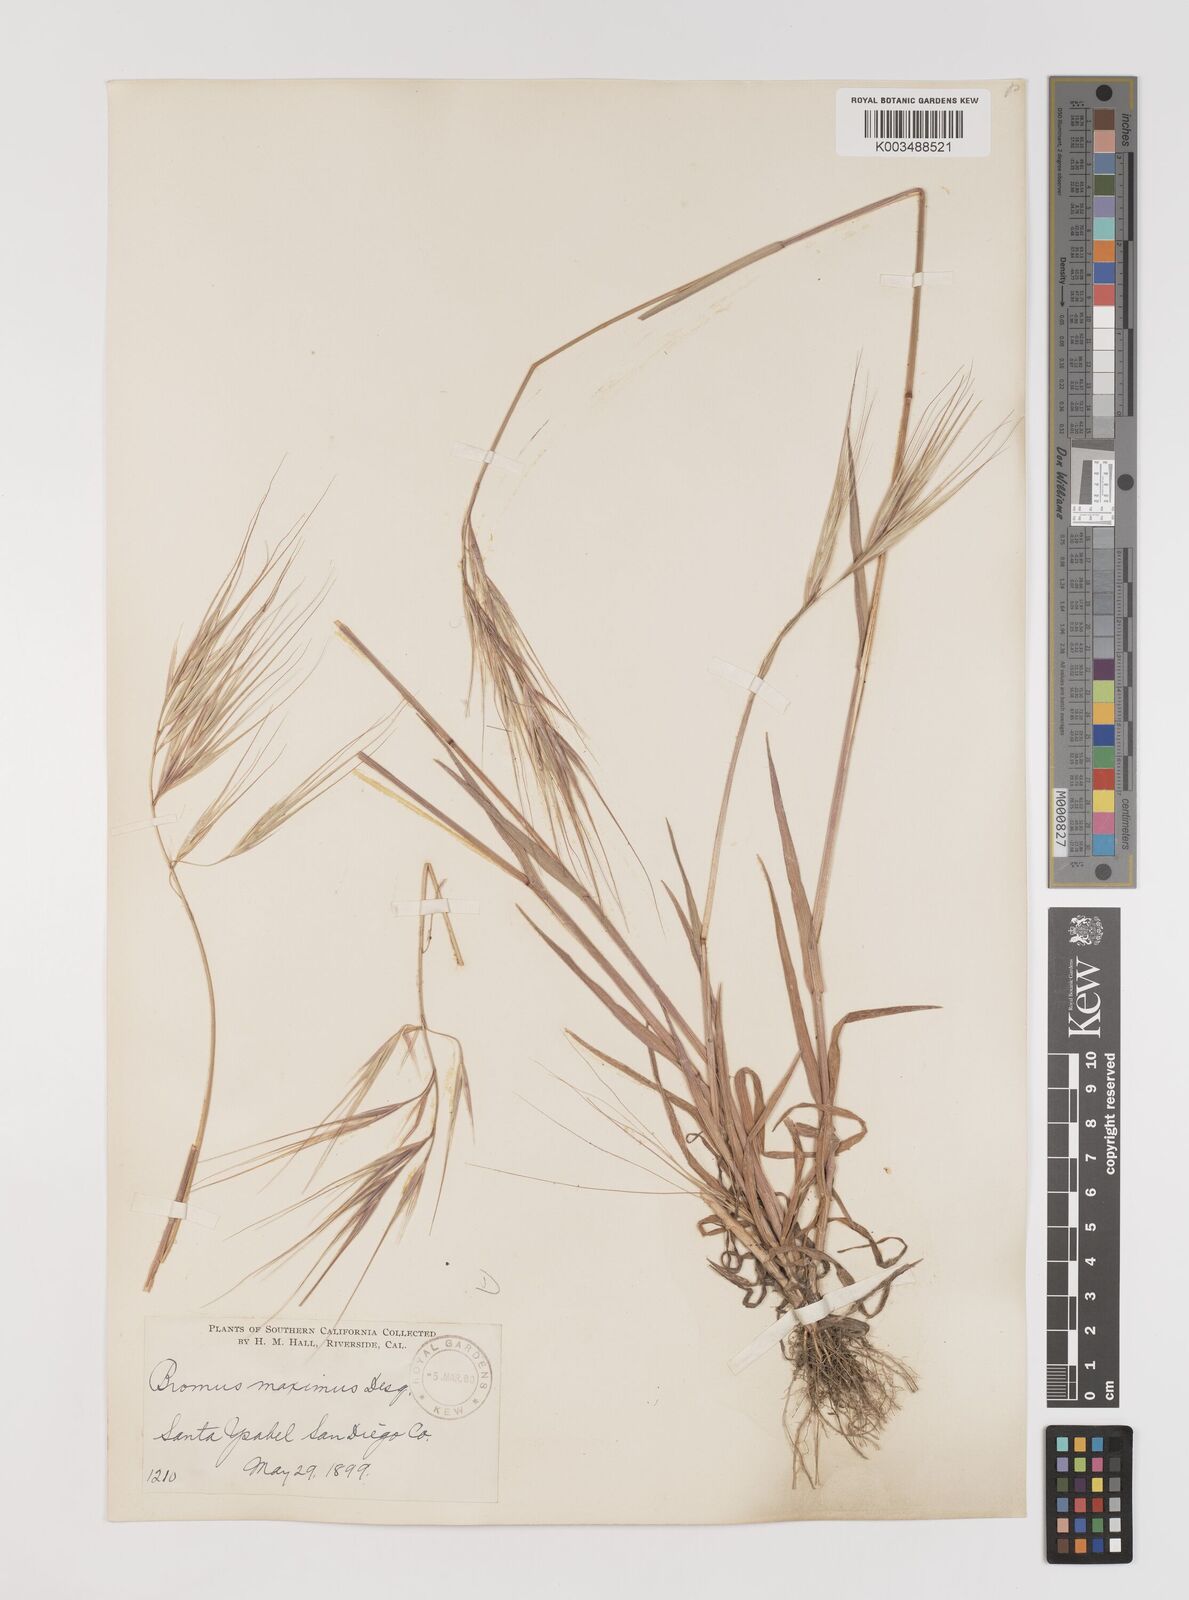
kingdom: Plantae
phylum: Tracheophyta
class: Liliopsida
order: Poales
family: Poaceae
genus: Bromus
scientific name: Bromus diandrus
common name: Ripgut brome
